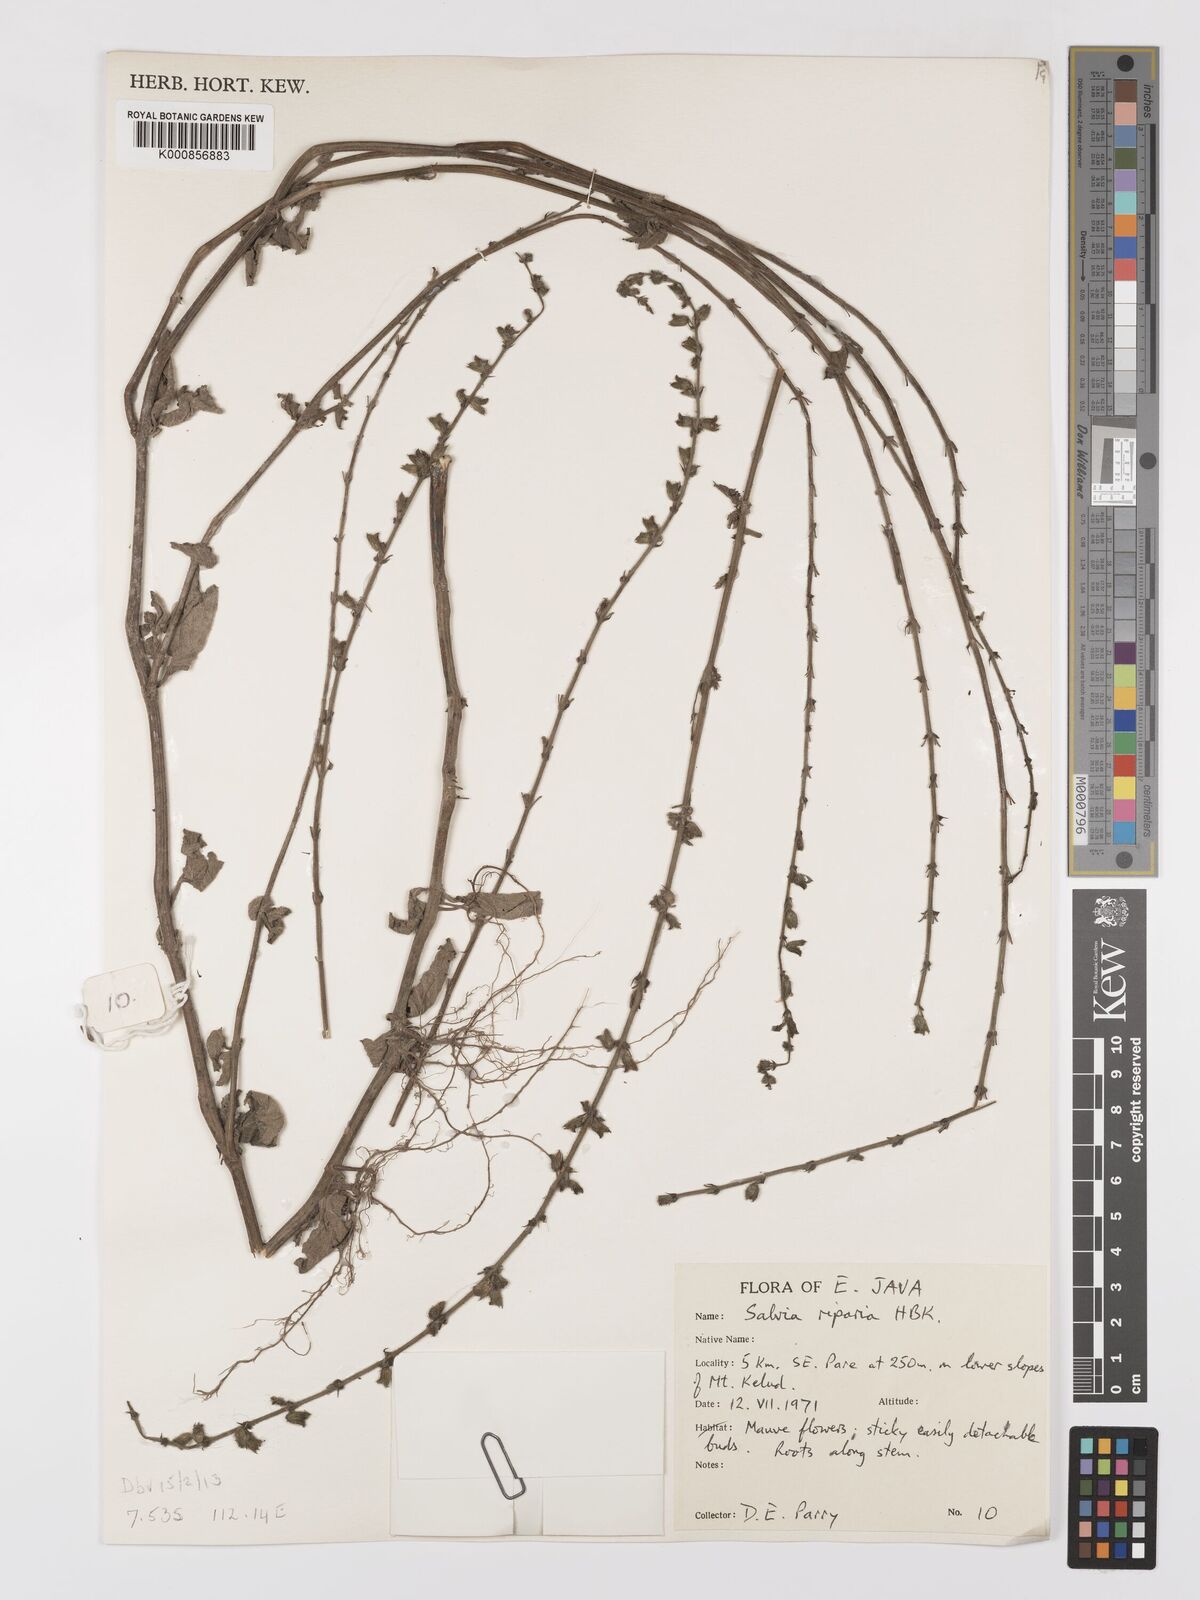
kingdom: Plantae
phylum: Tracheophyta
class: Magnoliopsida
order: Lamiales
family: Lamiaceae
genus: Salvia
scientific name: Salvia misella
